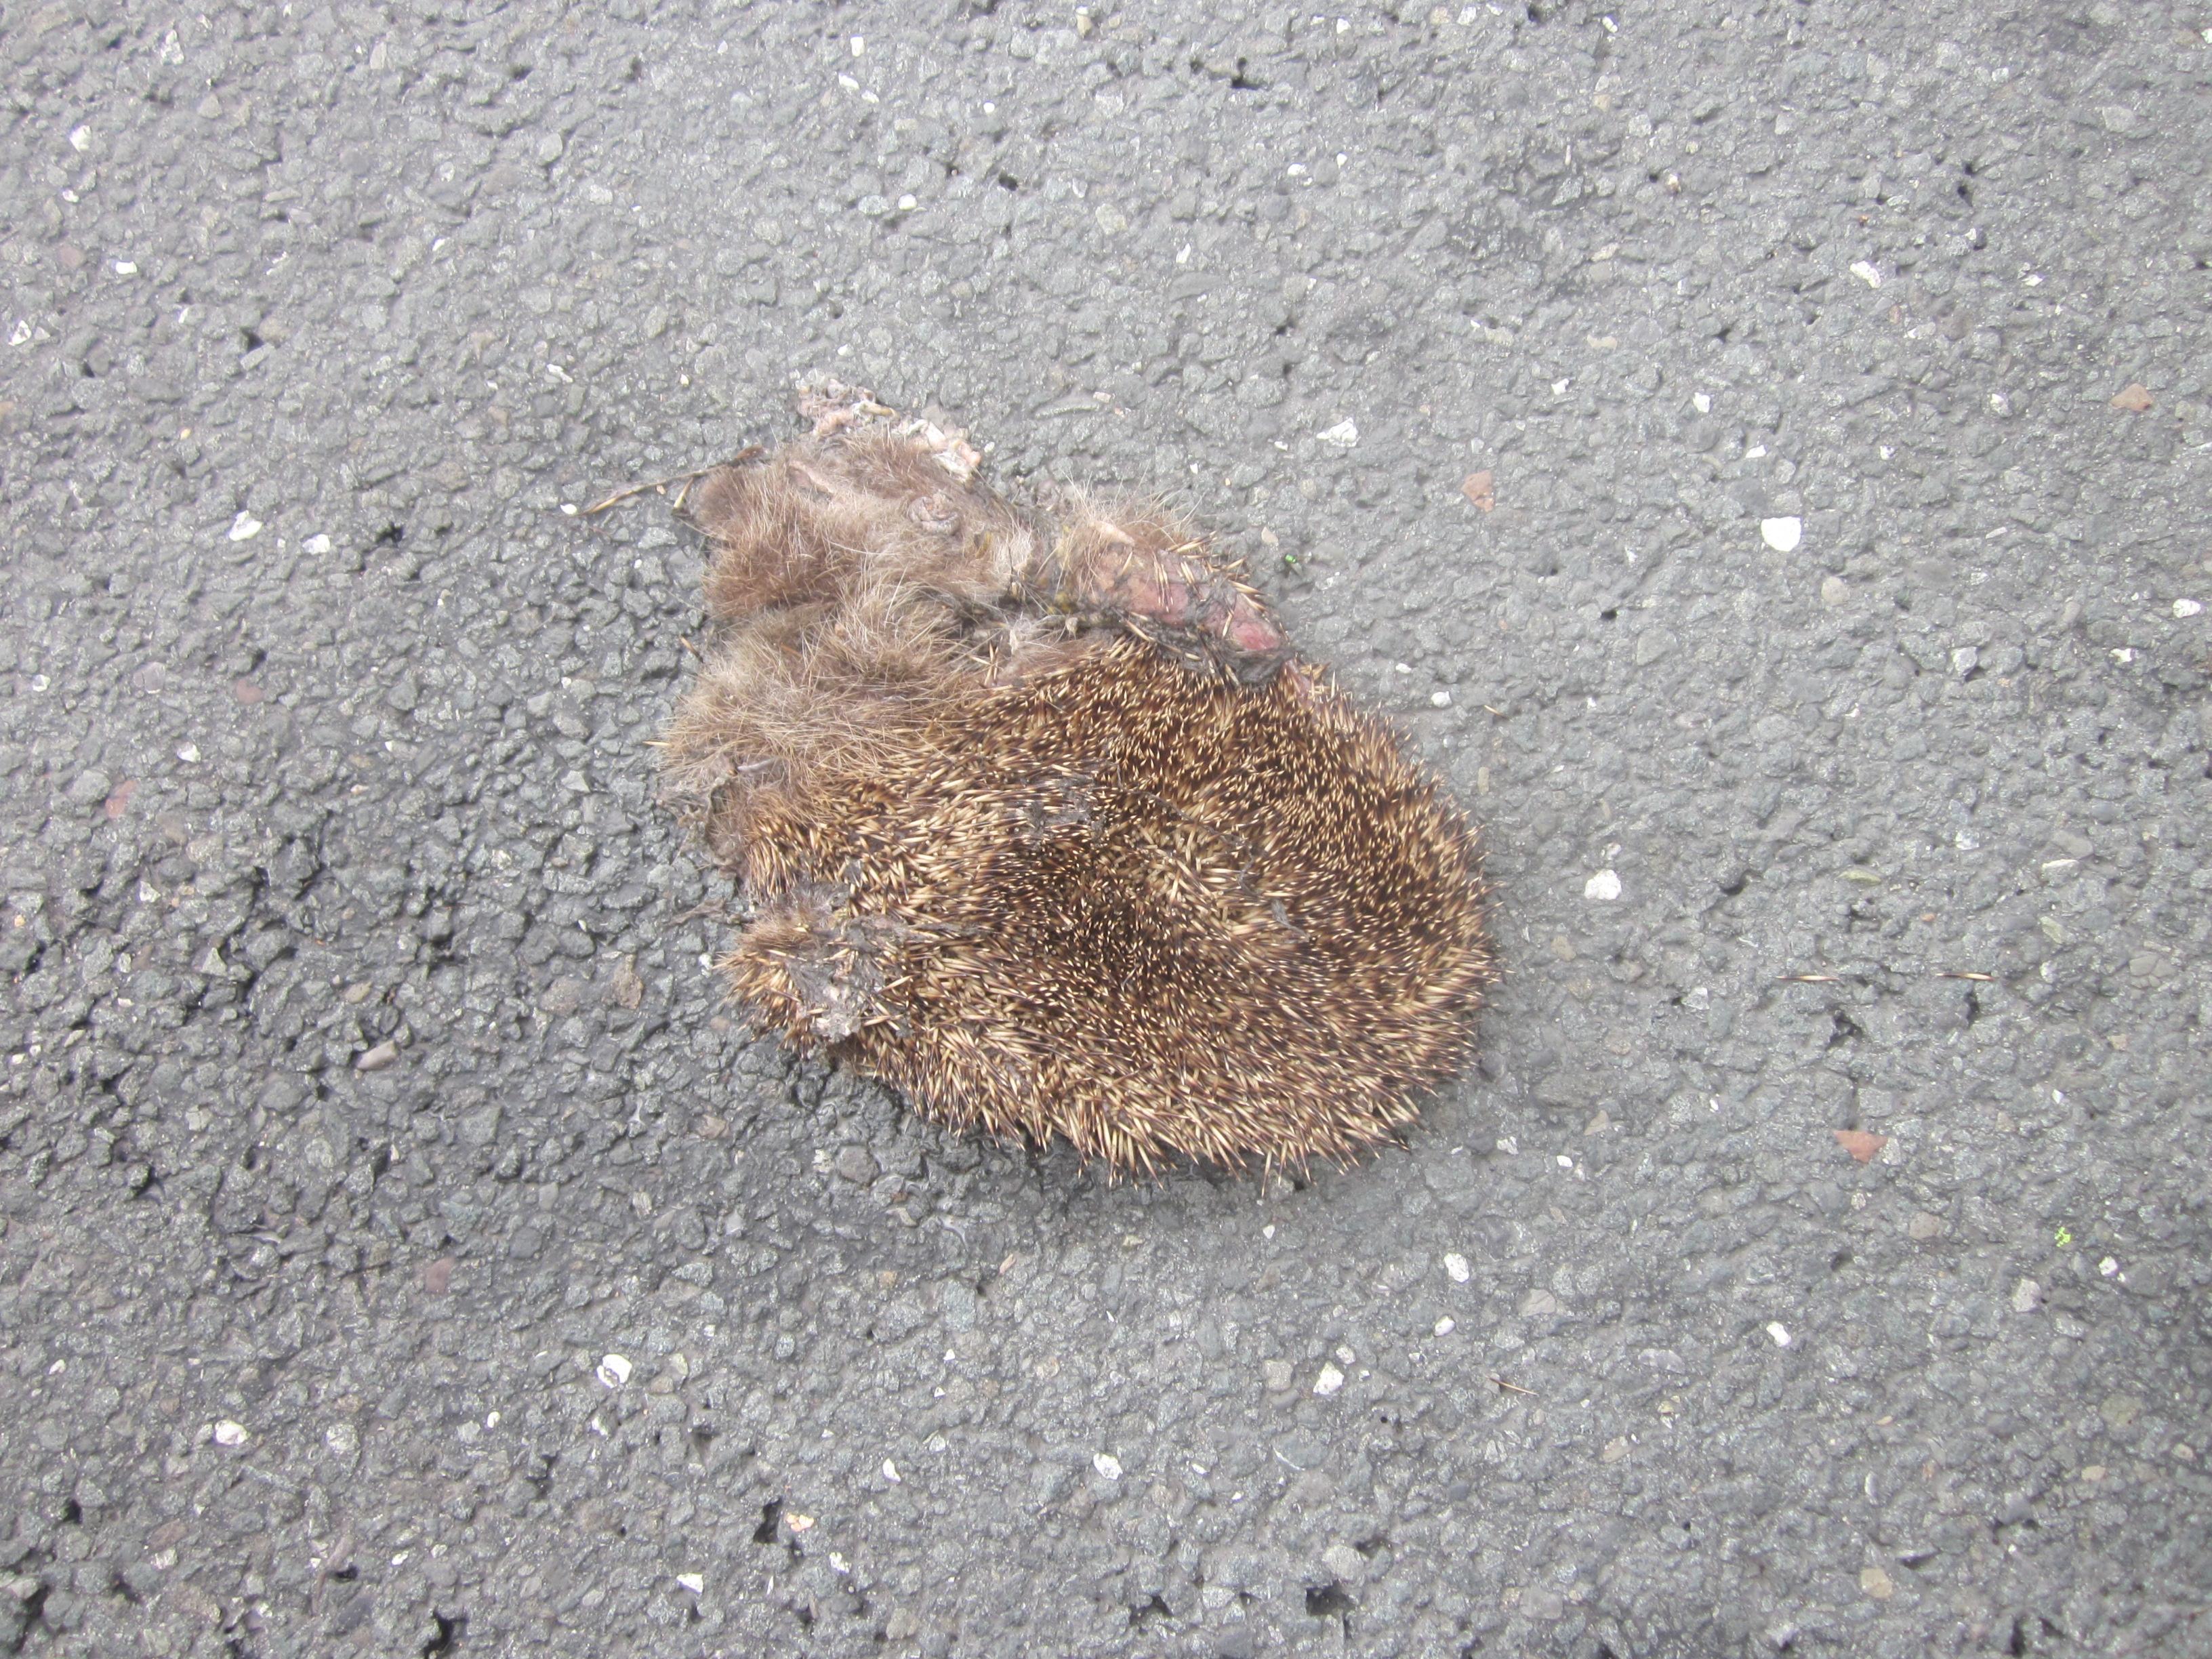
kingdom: Animalia
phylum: Chordata
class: Mammalia
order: Erinaceomorpha
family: Erinaceidae
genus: Erinaceus
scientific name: Erinaceus
